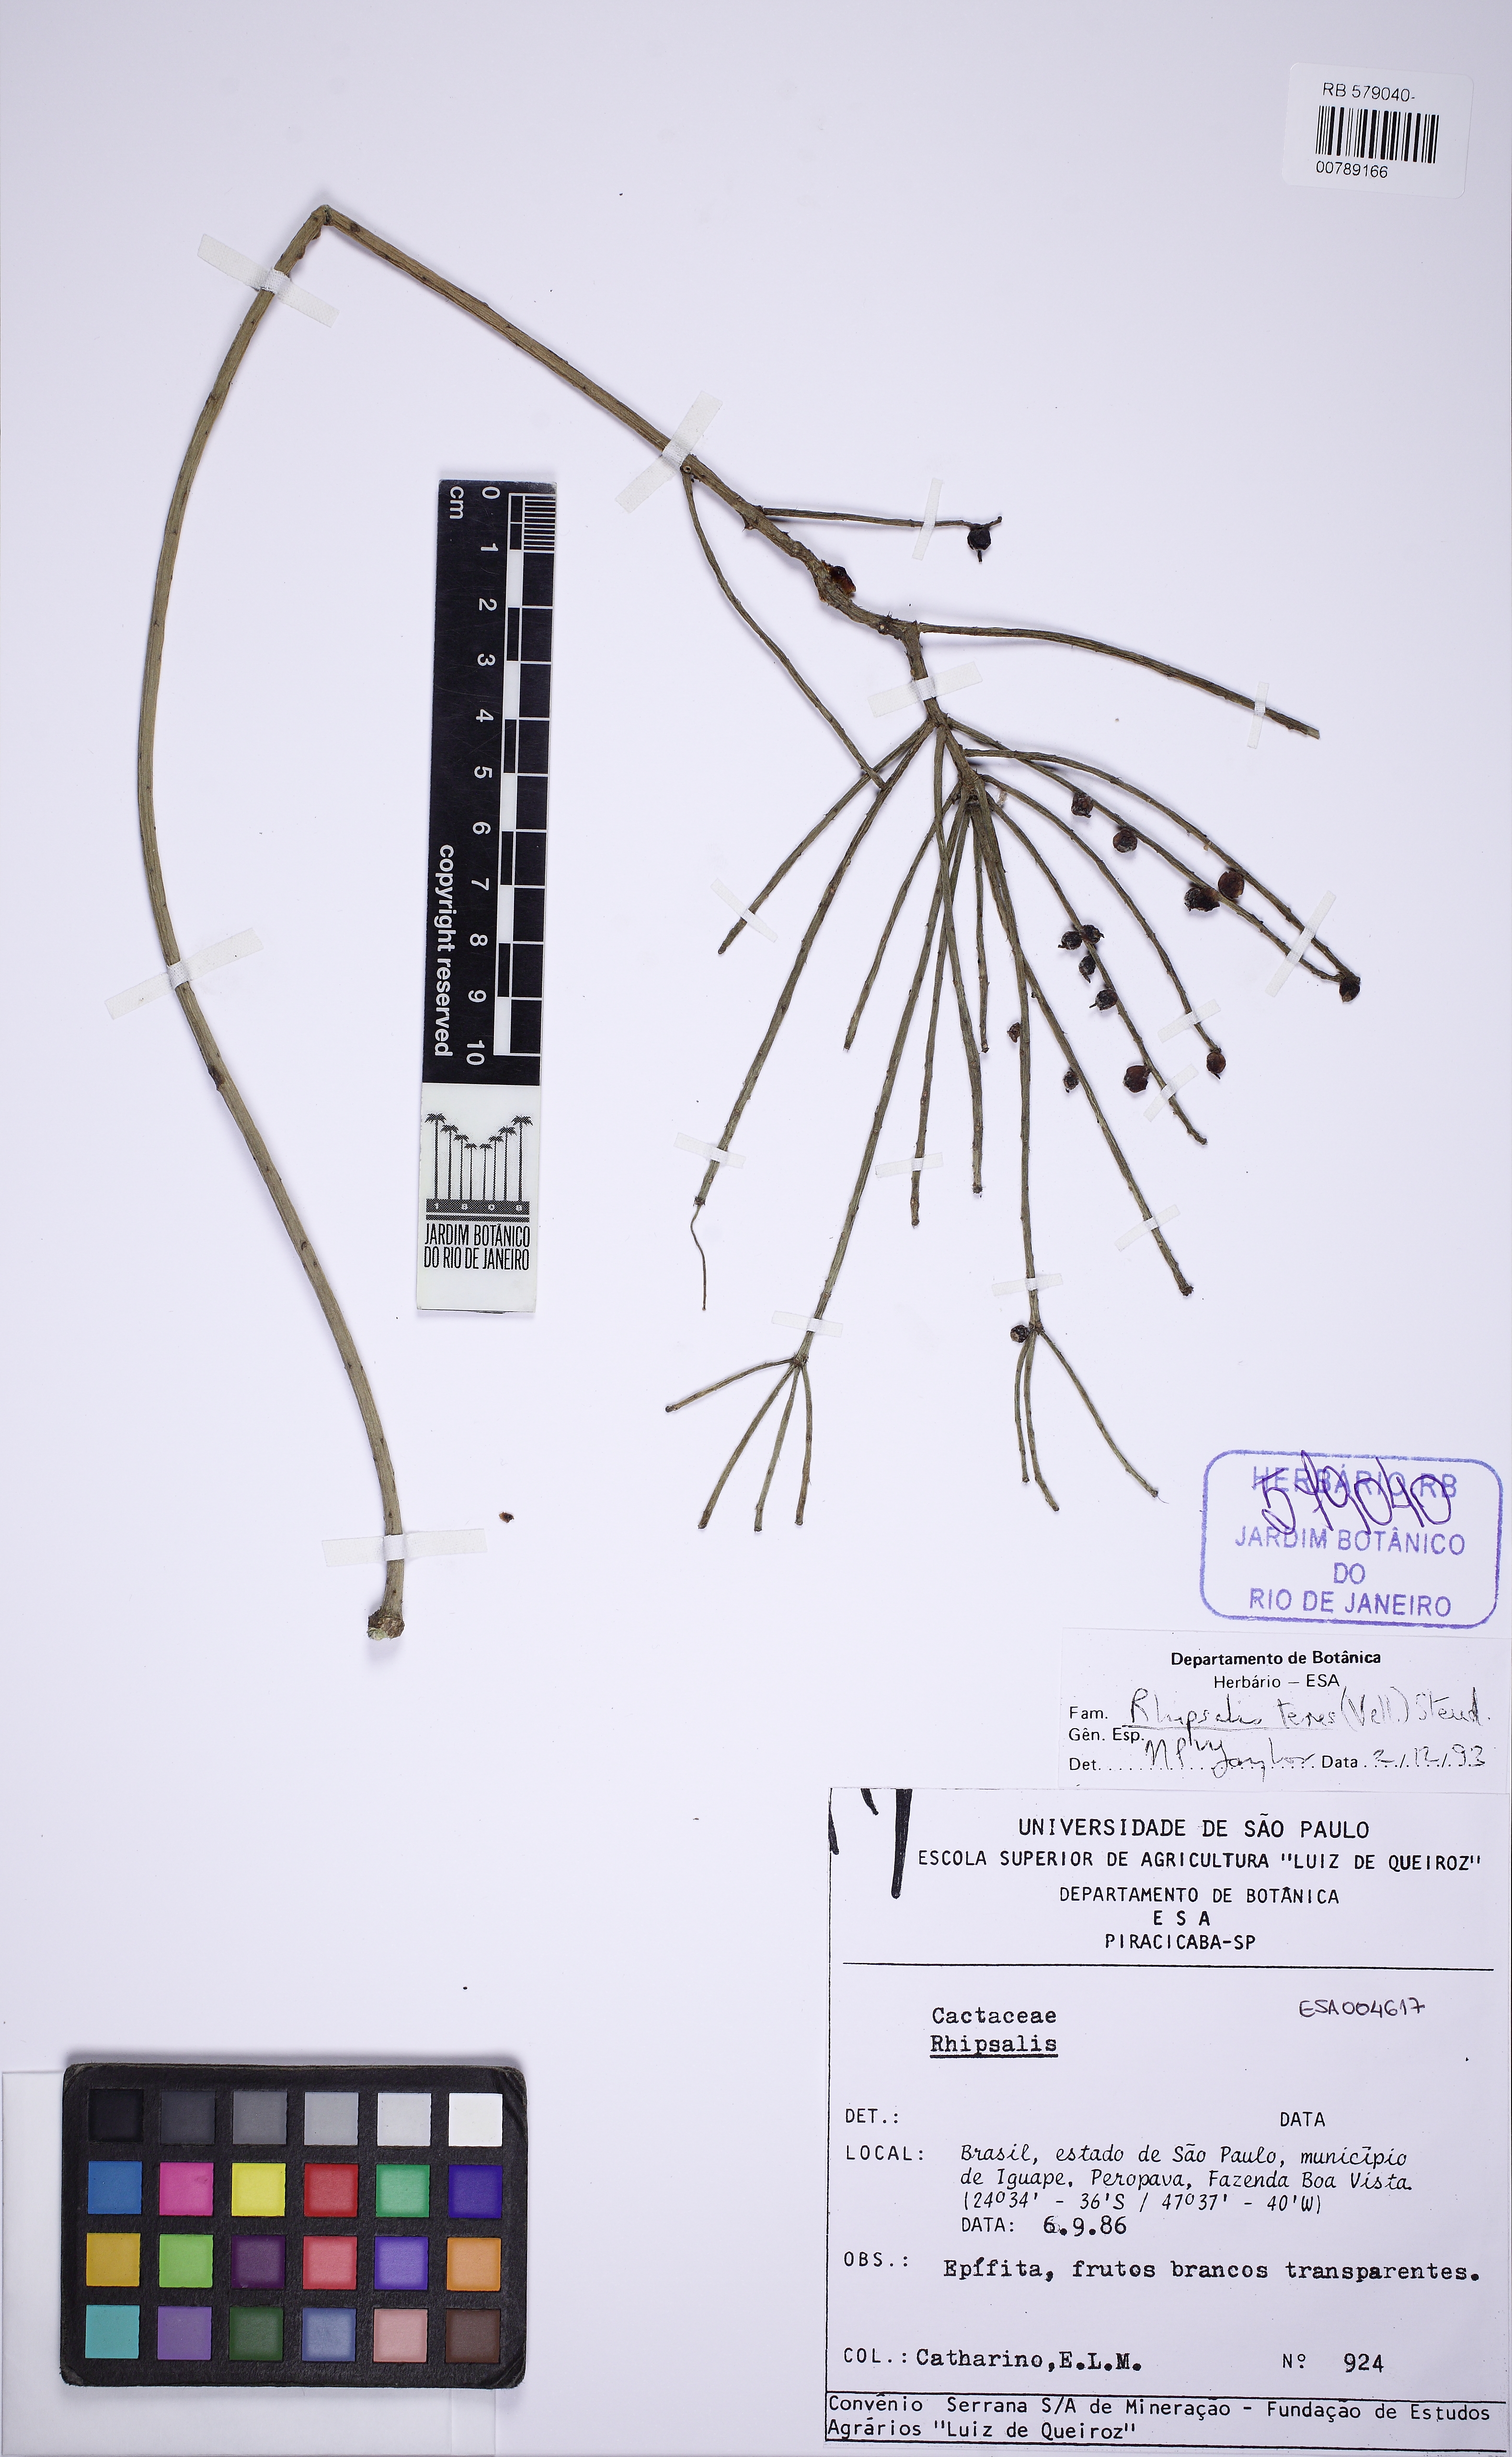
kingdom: Plantae
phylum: Tracheophyta
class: Magnoliopsida
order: Caryophyllales
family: Cactaceae
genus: Rhipsalis
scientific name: Rhipsalis teres
